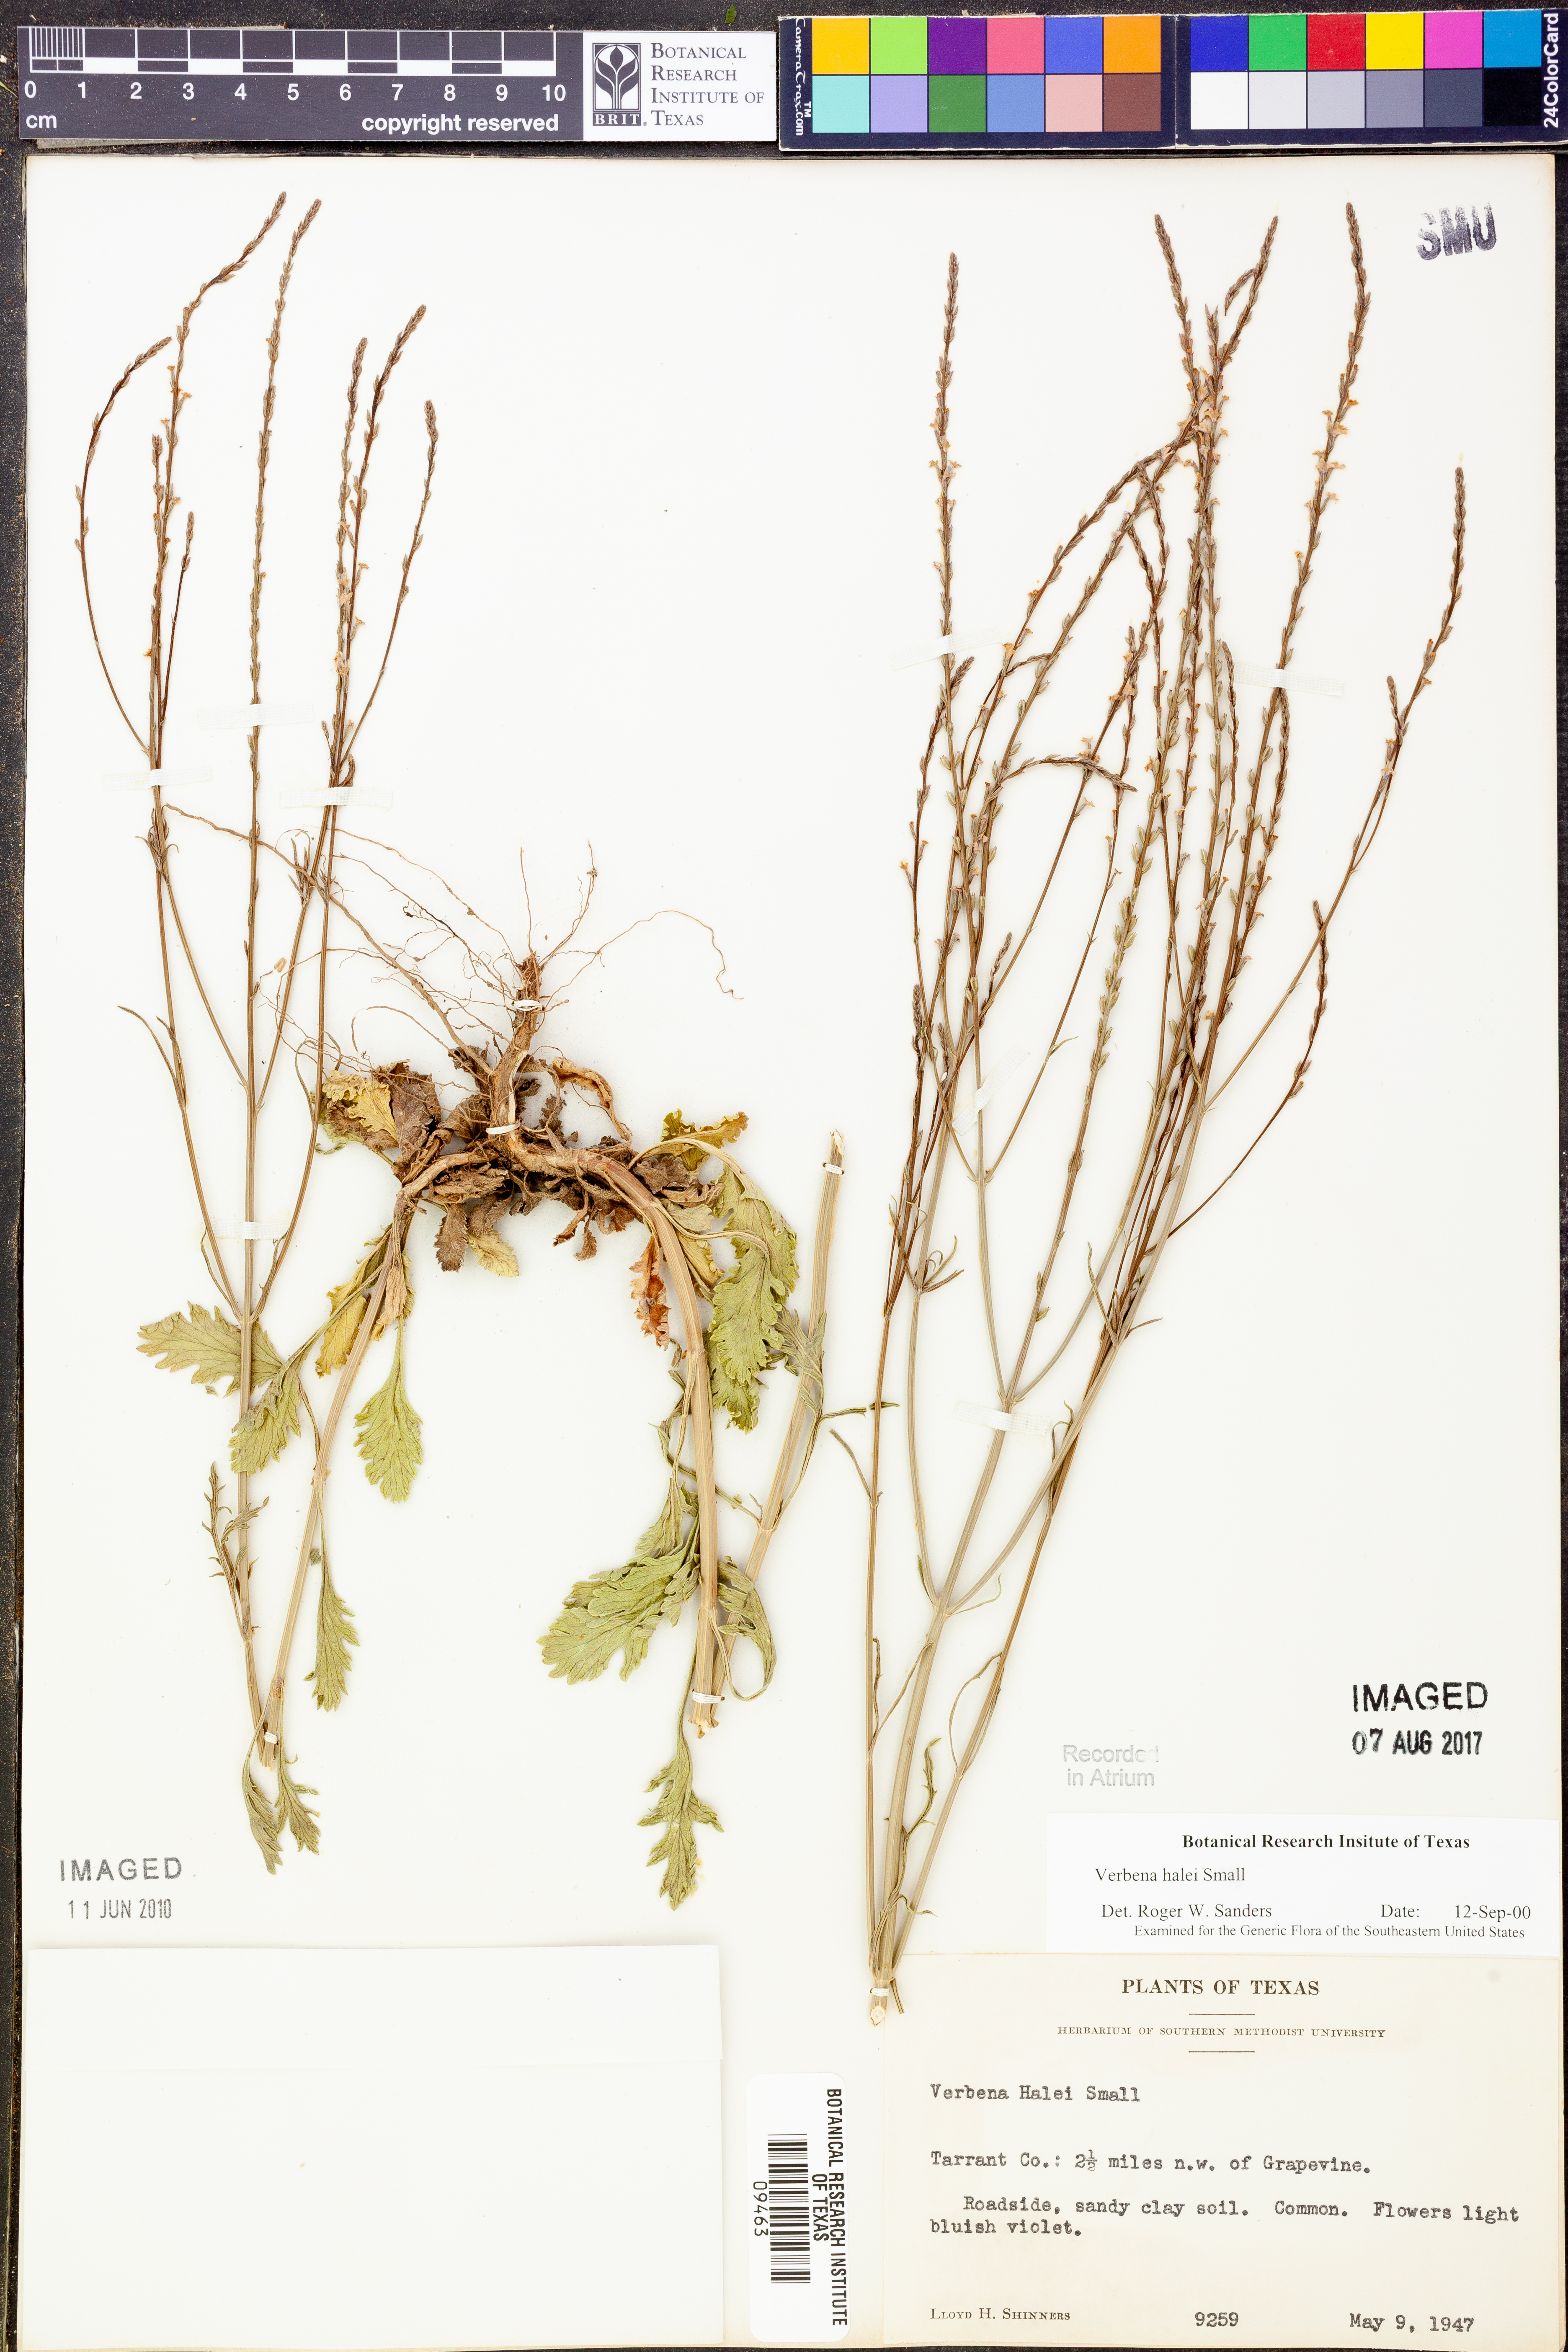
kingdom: Plantae
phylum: Tracheophyta
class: Magnoliopsida
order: Lamiales
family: Verbenaceae
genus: Verbena
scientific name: Verbena halei
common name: Texas vervain
